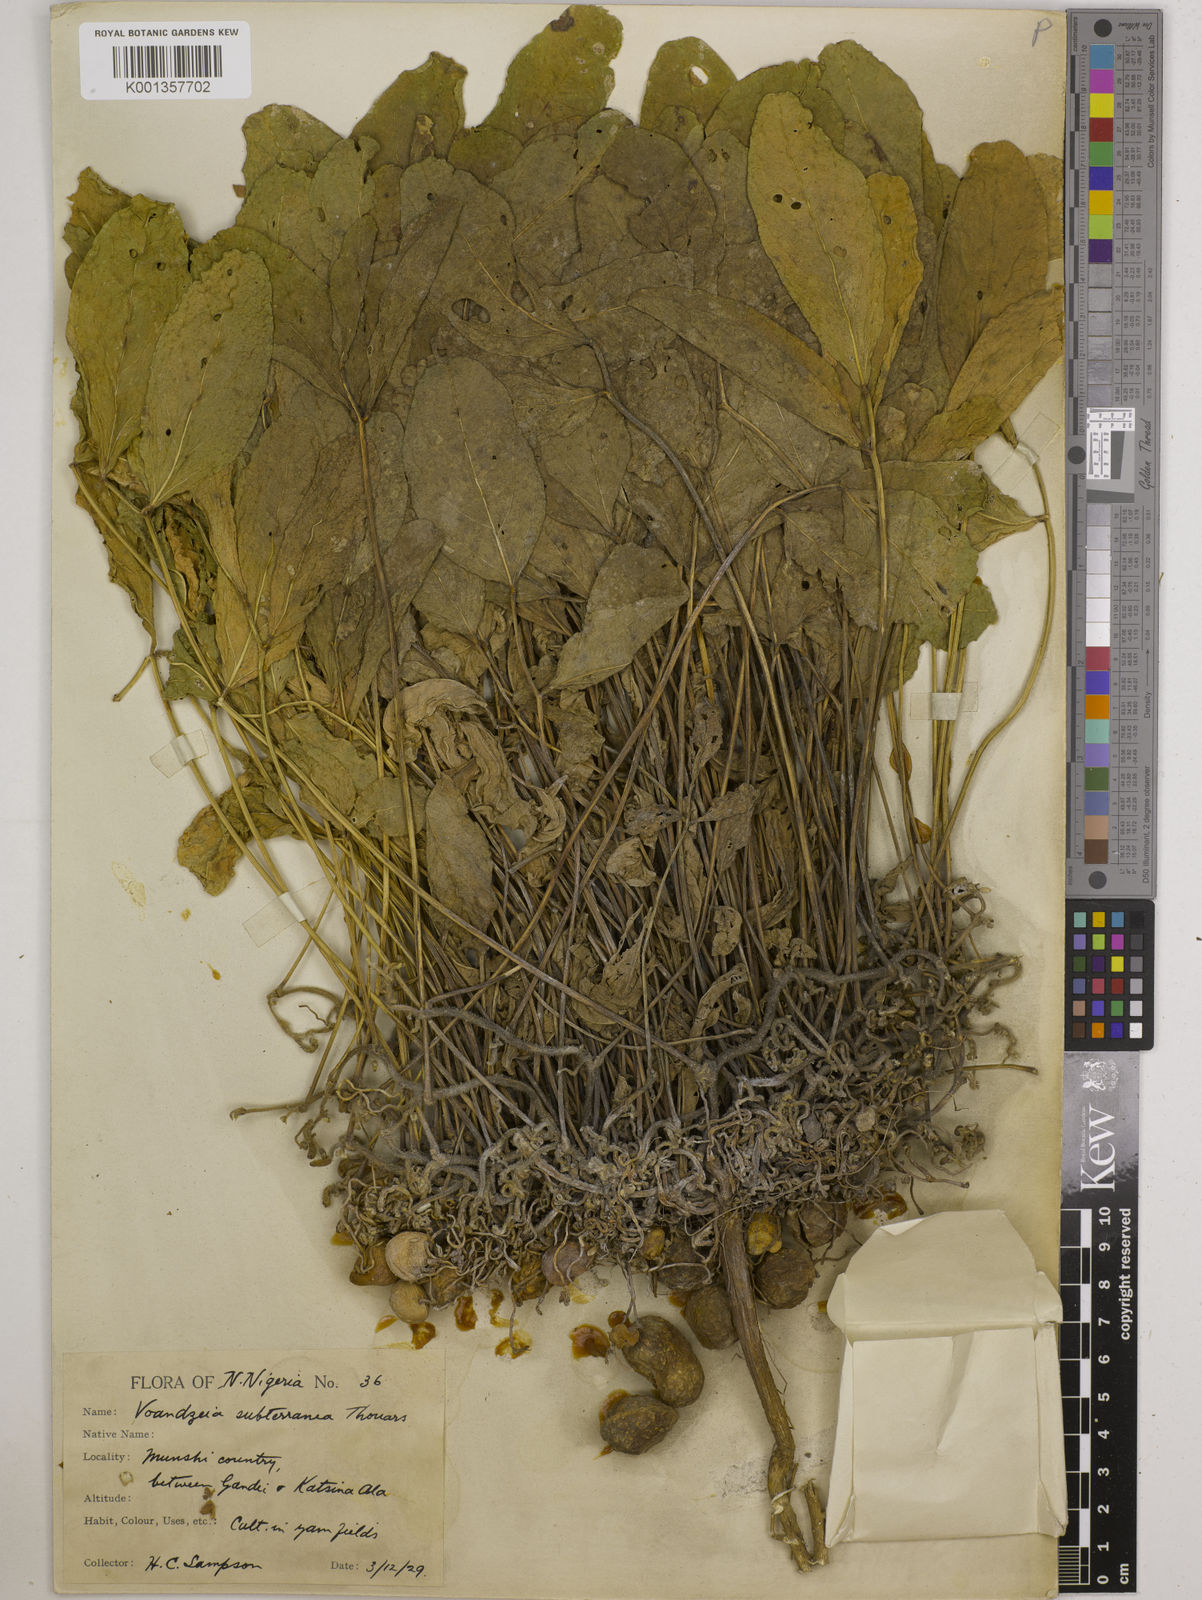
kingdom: Plantae
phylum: Tracheophyta
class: Magnoliopsida
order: Fabales
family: Fabaceae
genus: Vigna
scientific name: Vigna subterranea
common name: Bambara groundnut
